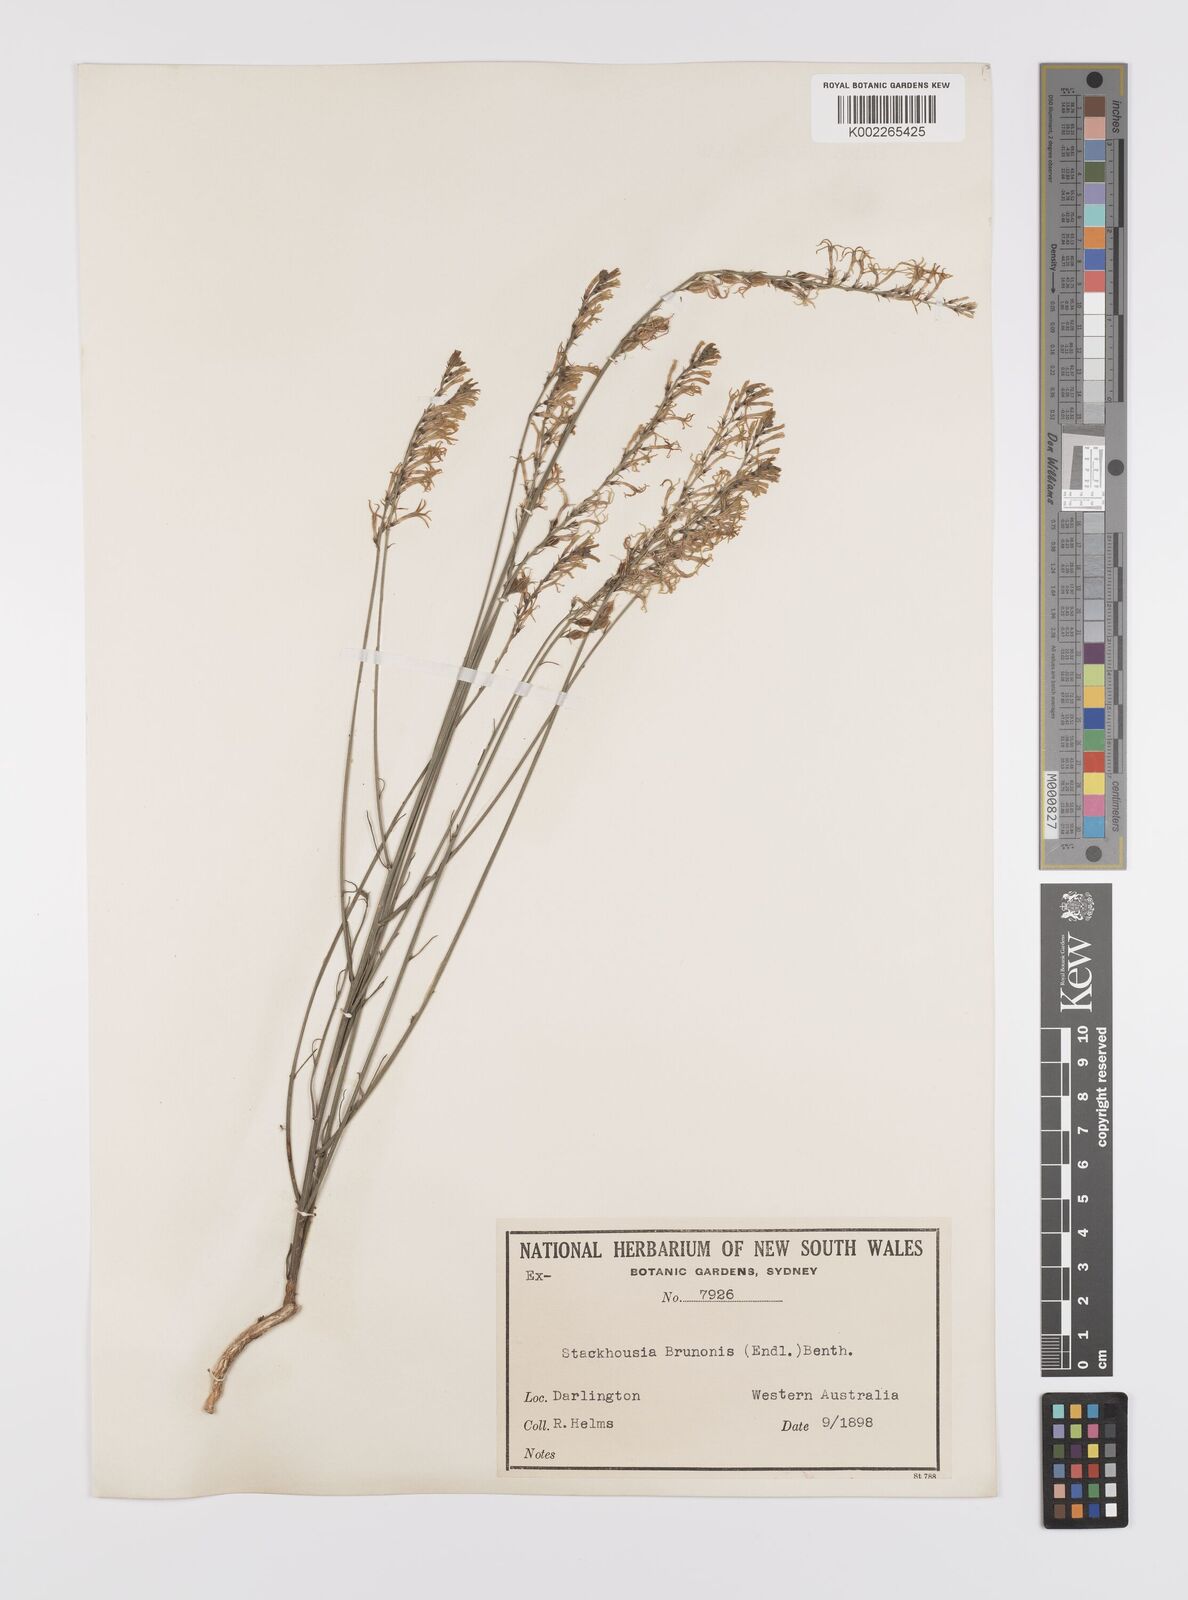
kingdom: Plantae
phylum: Tracheophyta
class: Magnoliopsida
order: Celastrales
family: Celastraceae
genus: Tripterococcus
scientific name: Tripterococcus brunonis
